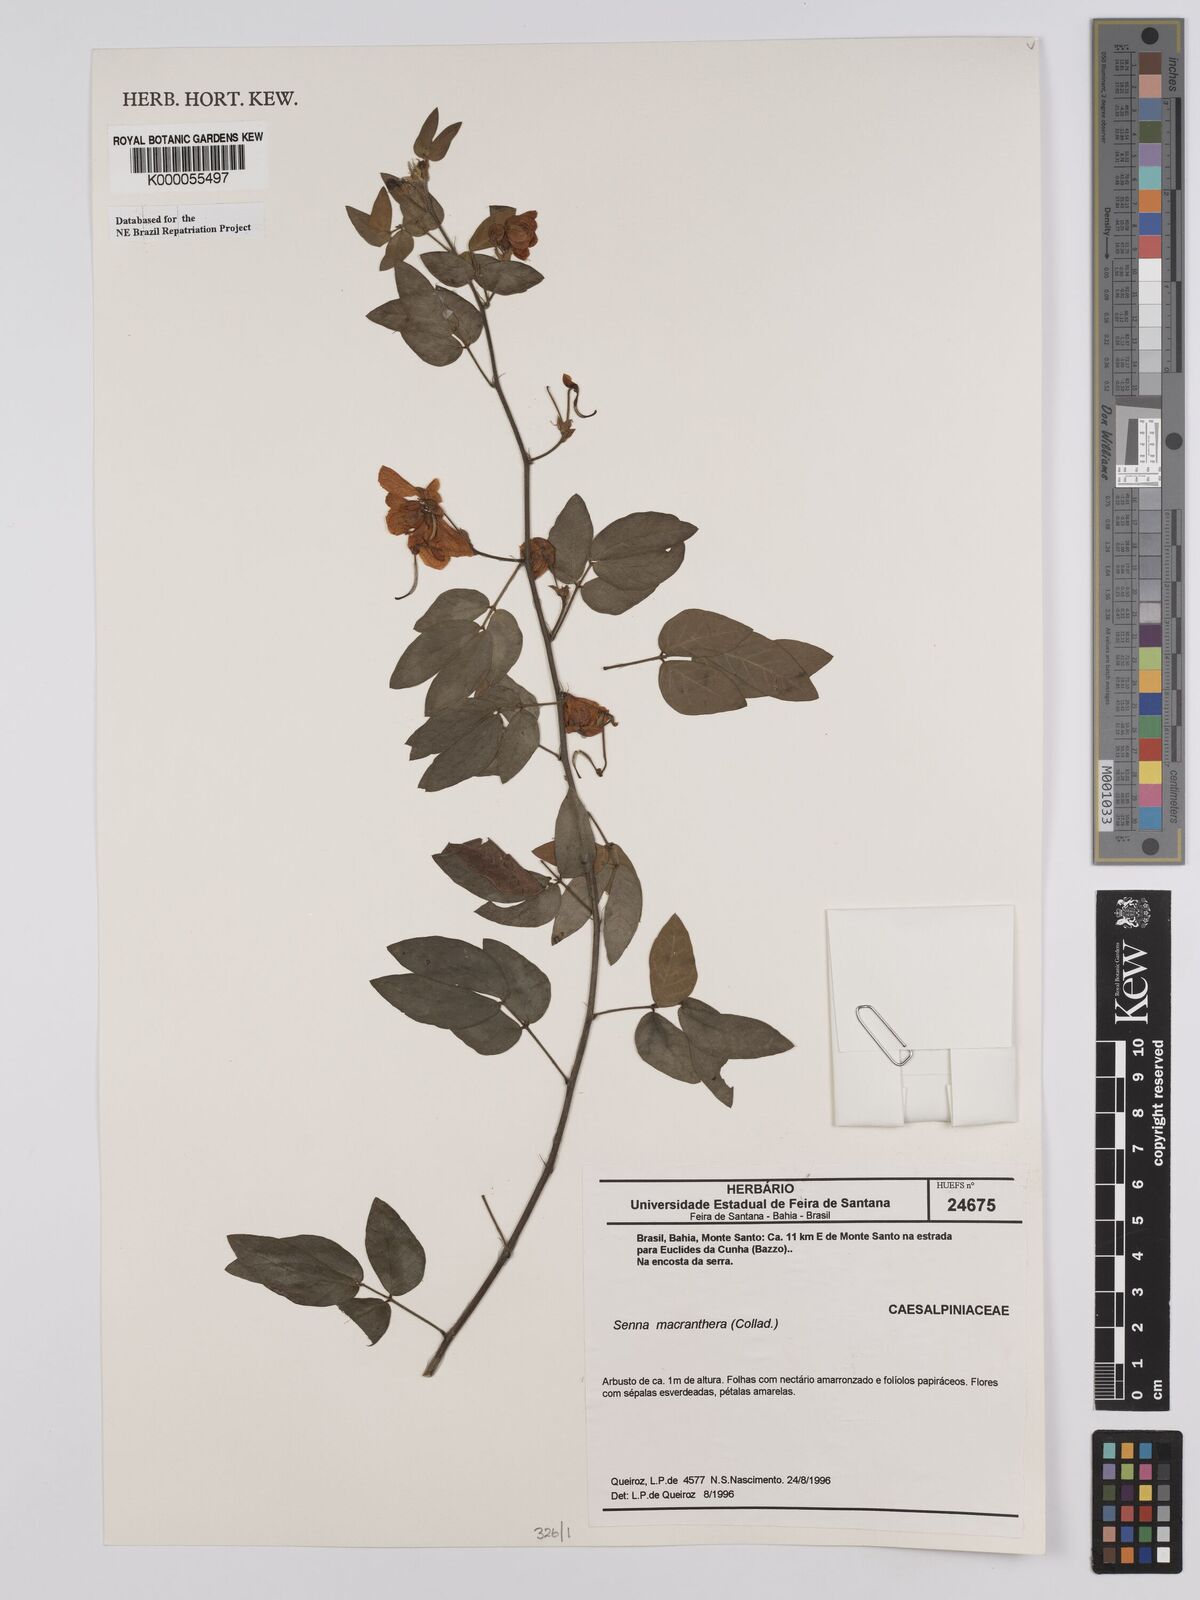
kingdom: Plantae
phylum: Tracheophyta
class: Magnoliopsida
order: Fabales
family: Fabaceae
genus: Senna
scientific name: Senna rizzinii
